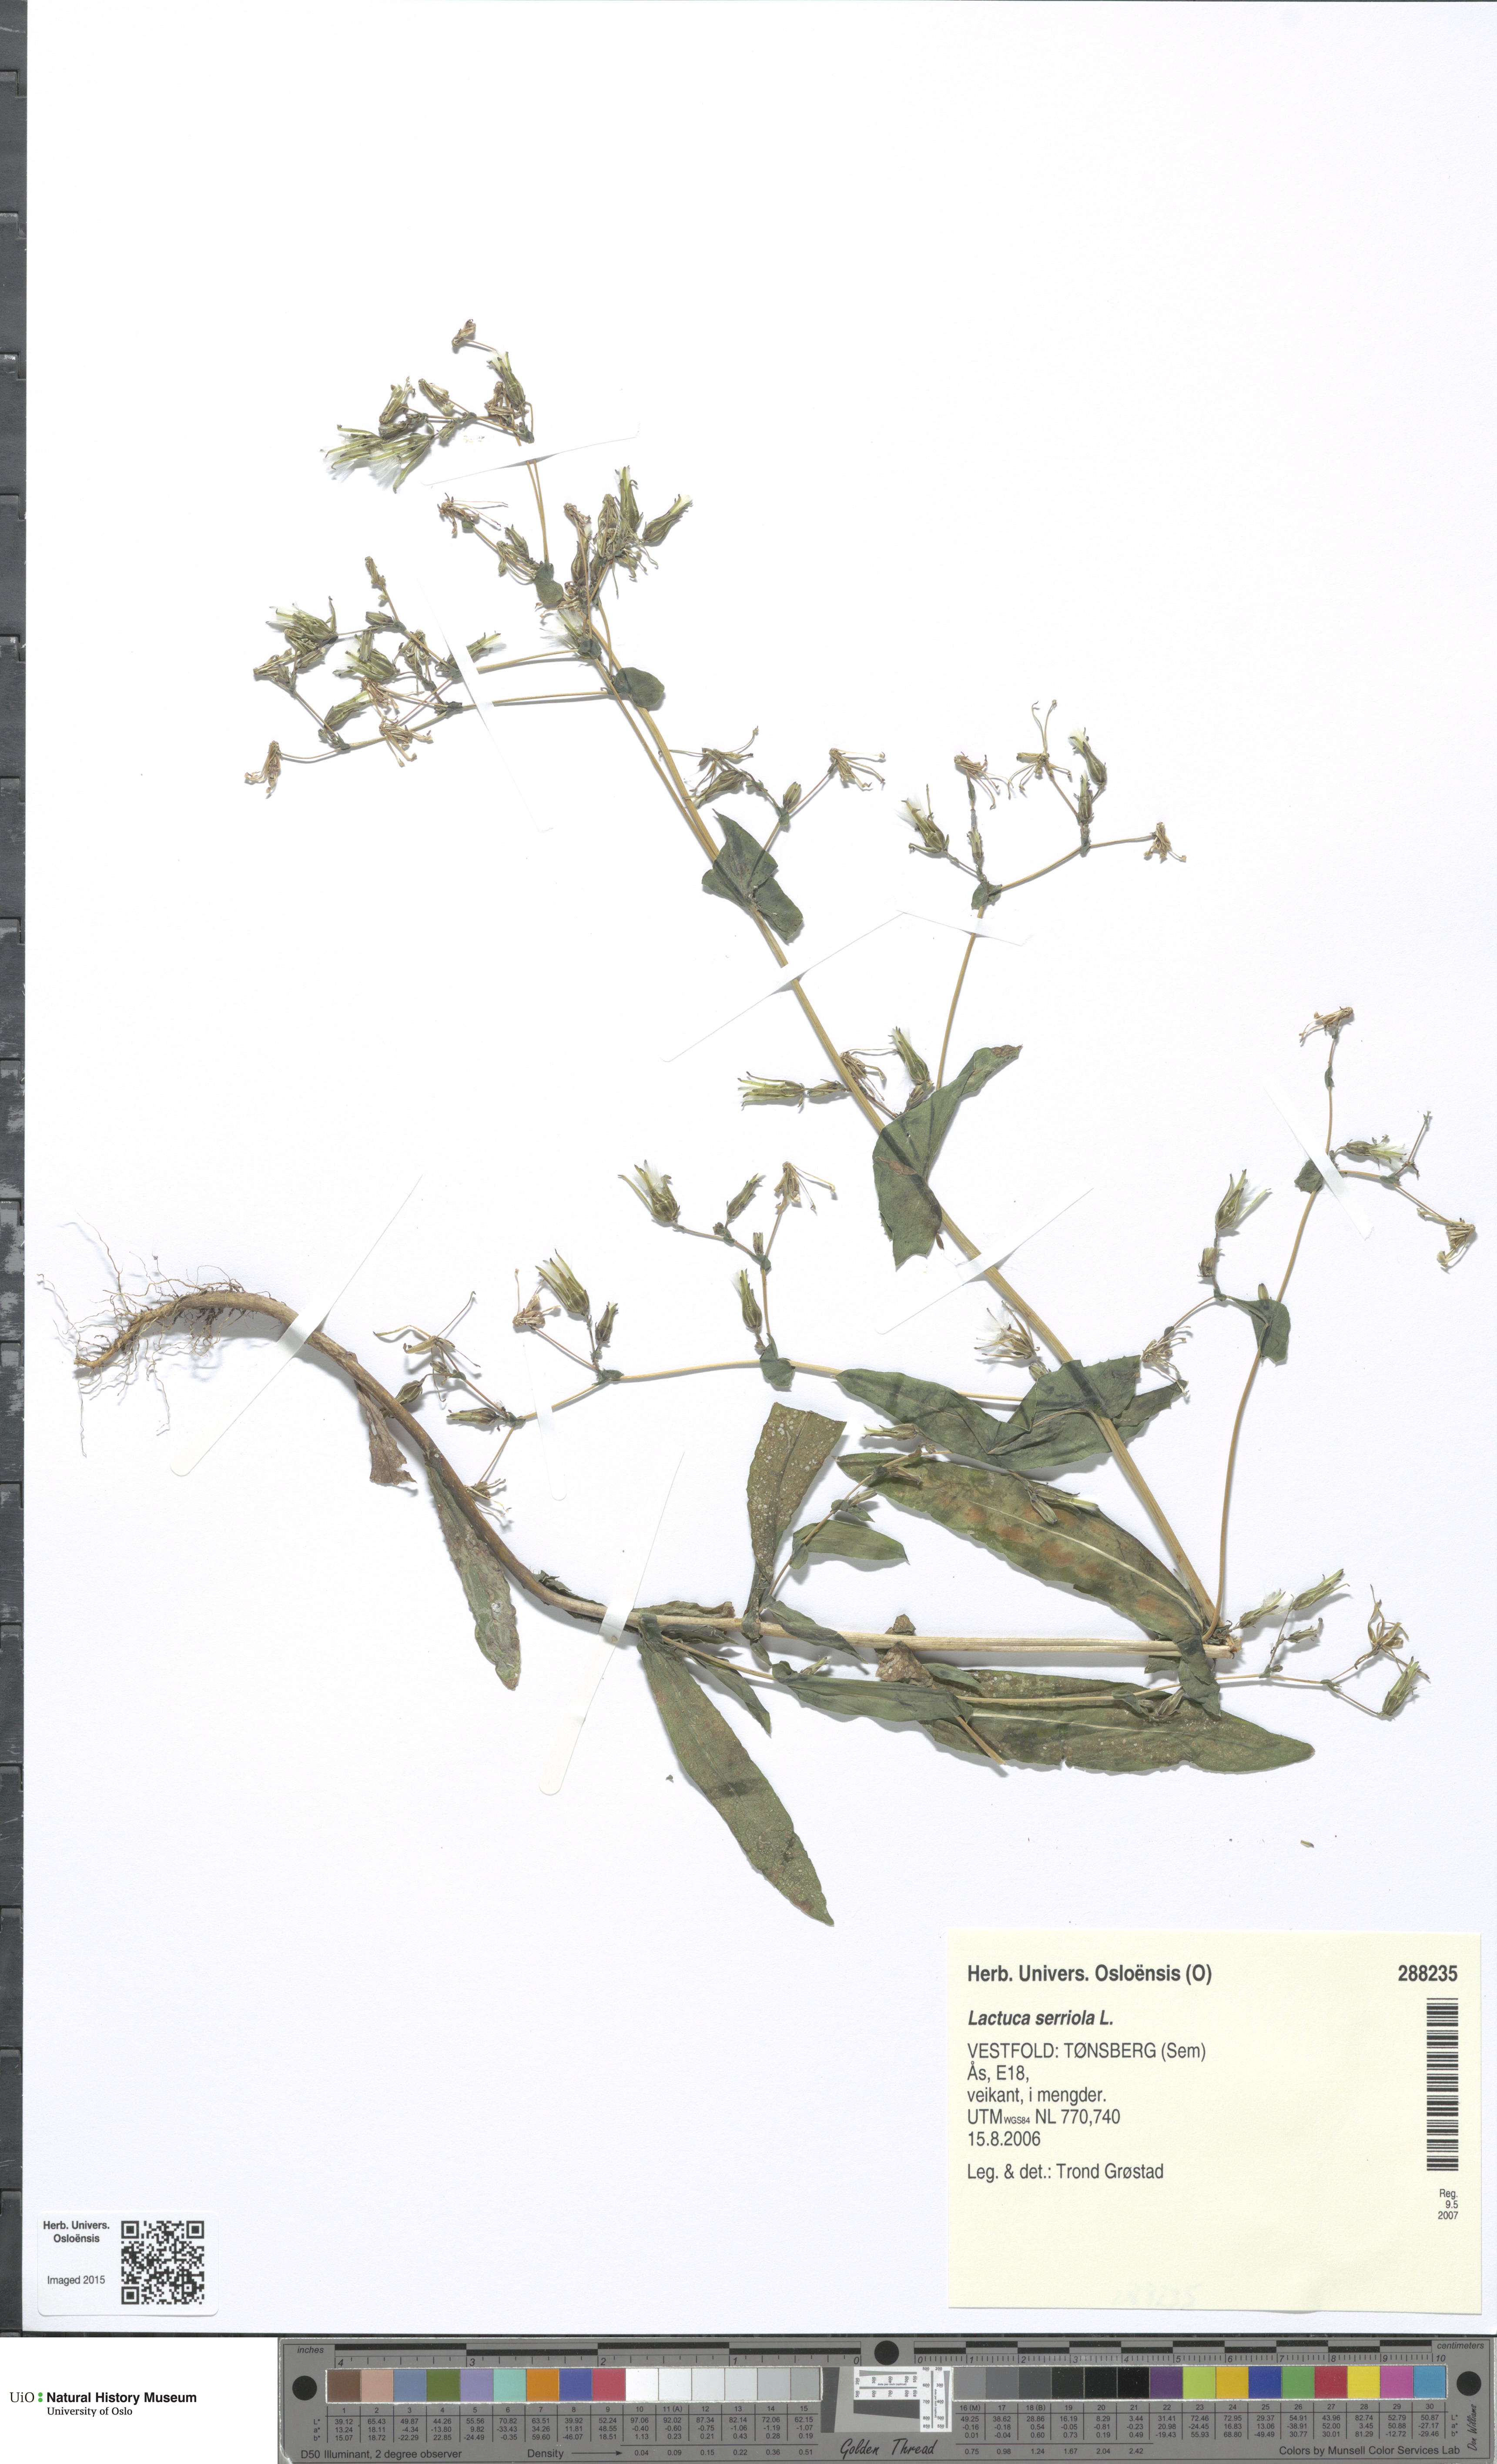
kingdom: Plantae
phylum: Tracheophyta
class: Magnoliopsida
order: Asterales
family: Asteraceae
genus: Lactuca
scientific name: Lactuca serriola
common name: Prickly lettuce
